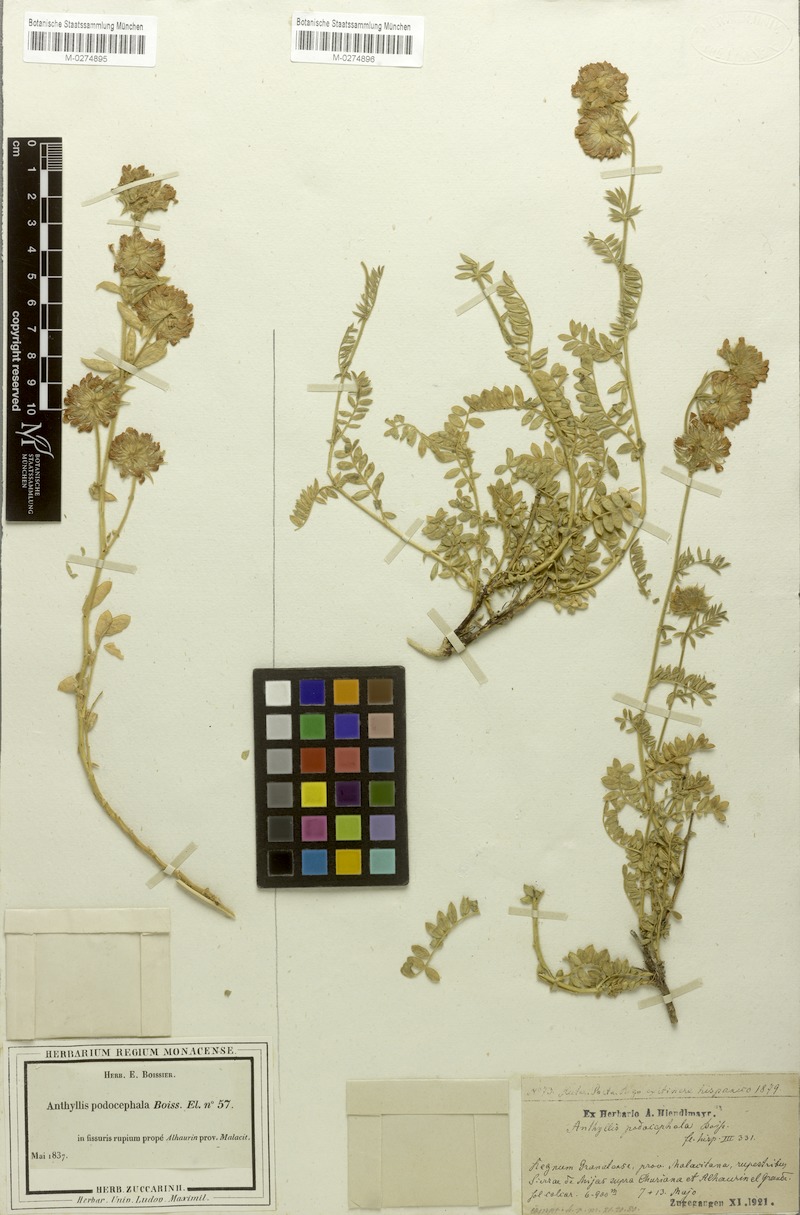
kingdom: Plantae
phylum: Tracheophyta
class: Magnoliopsida
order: Fabales
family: Fabaceae
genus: Anthyllis
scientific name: Anthyllis polycephala
